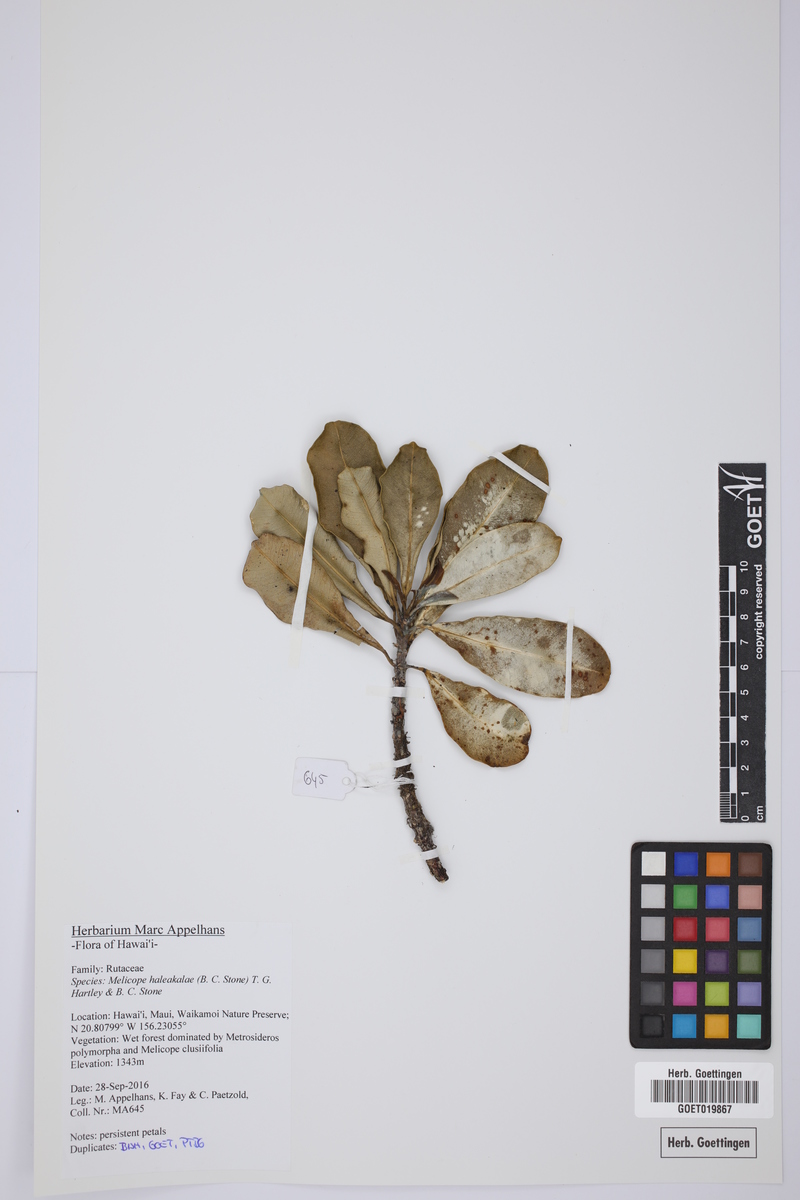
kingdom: Plantae
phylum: Tracheophyta
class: Magnoliopsida
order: Sapindales
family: Rutaceae
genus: Melicope
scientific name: Melicope haleakalae
